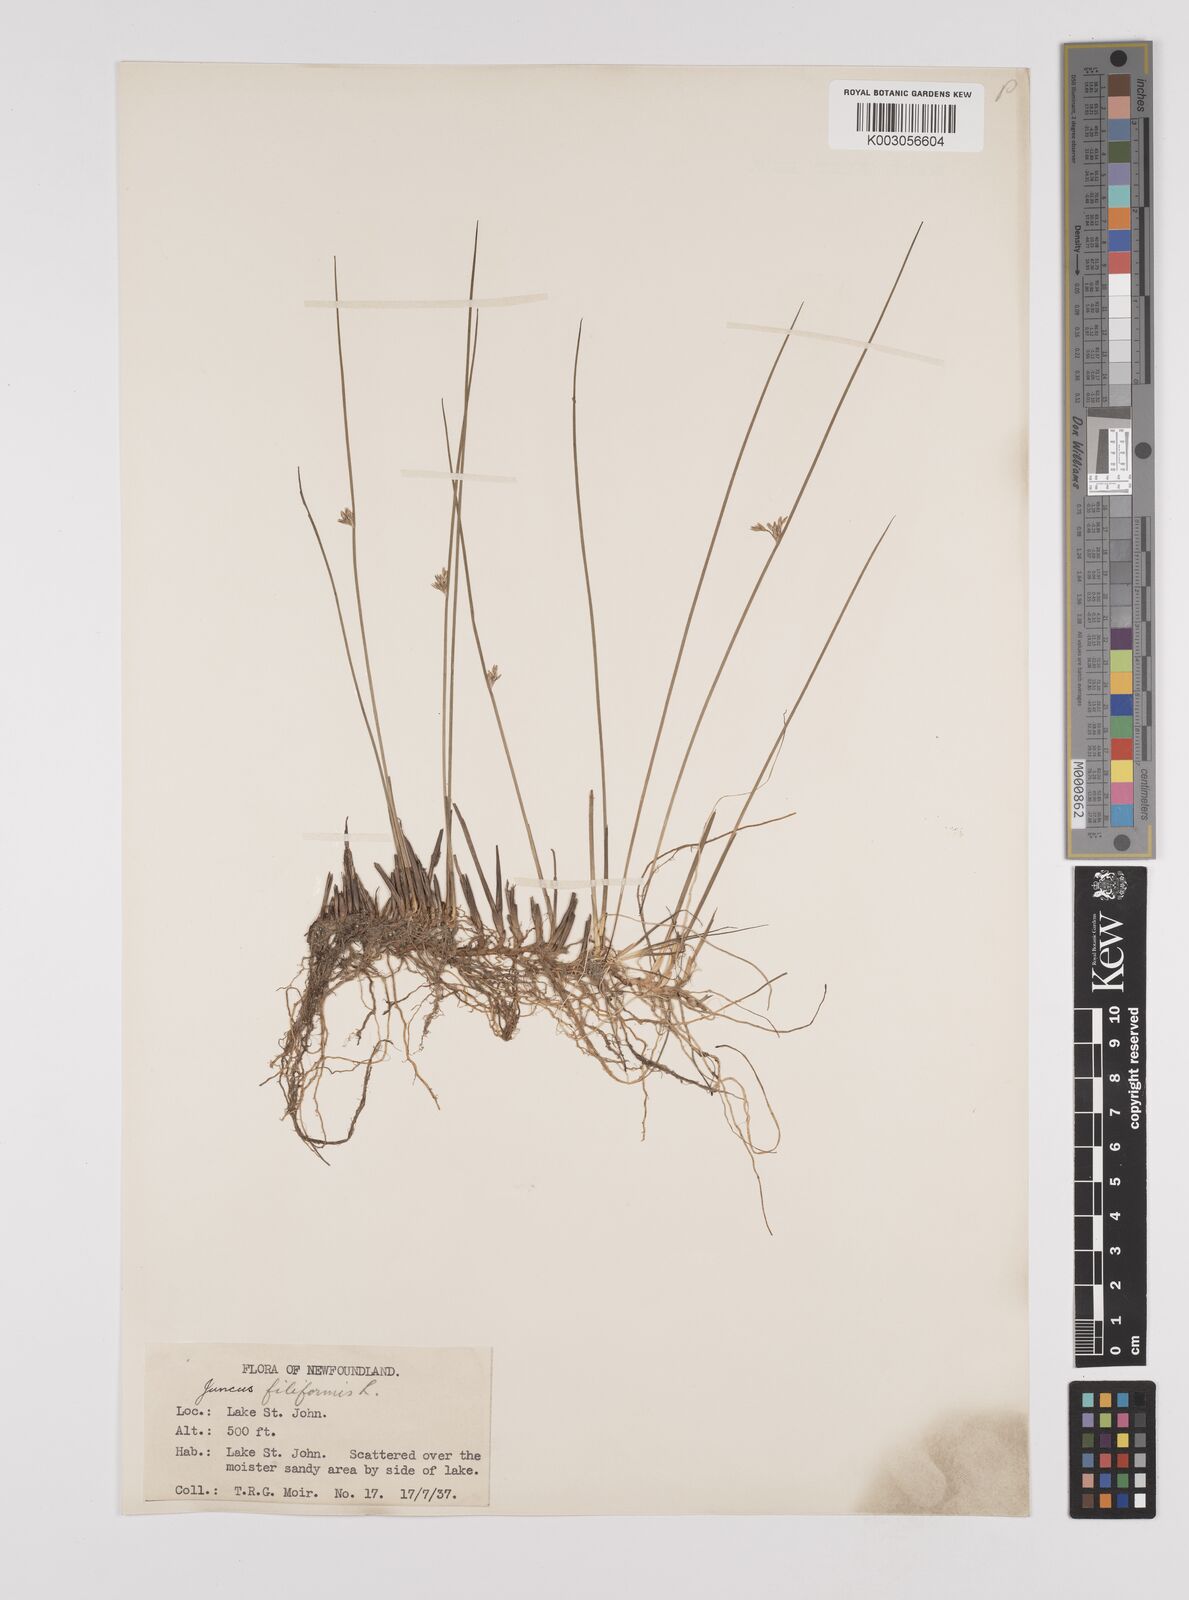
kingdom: Plantae
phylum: Tracheophyta
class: Liliopsida
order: Poales
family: Juncaceae
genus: Juncus
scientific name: Juncus filiformis
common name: Thread rush
